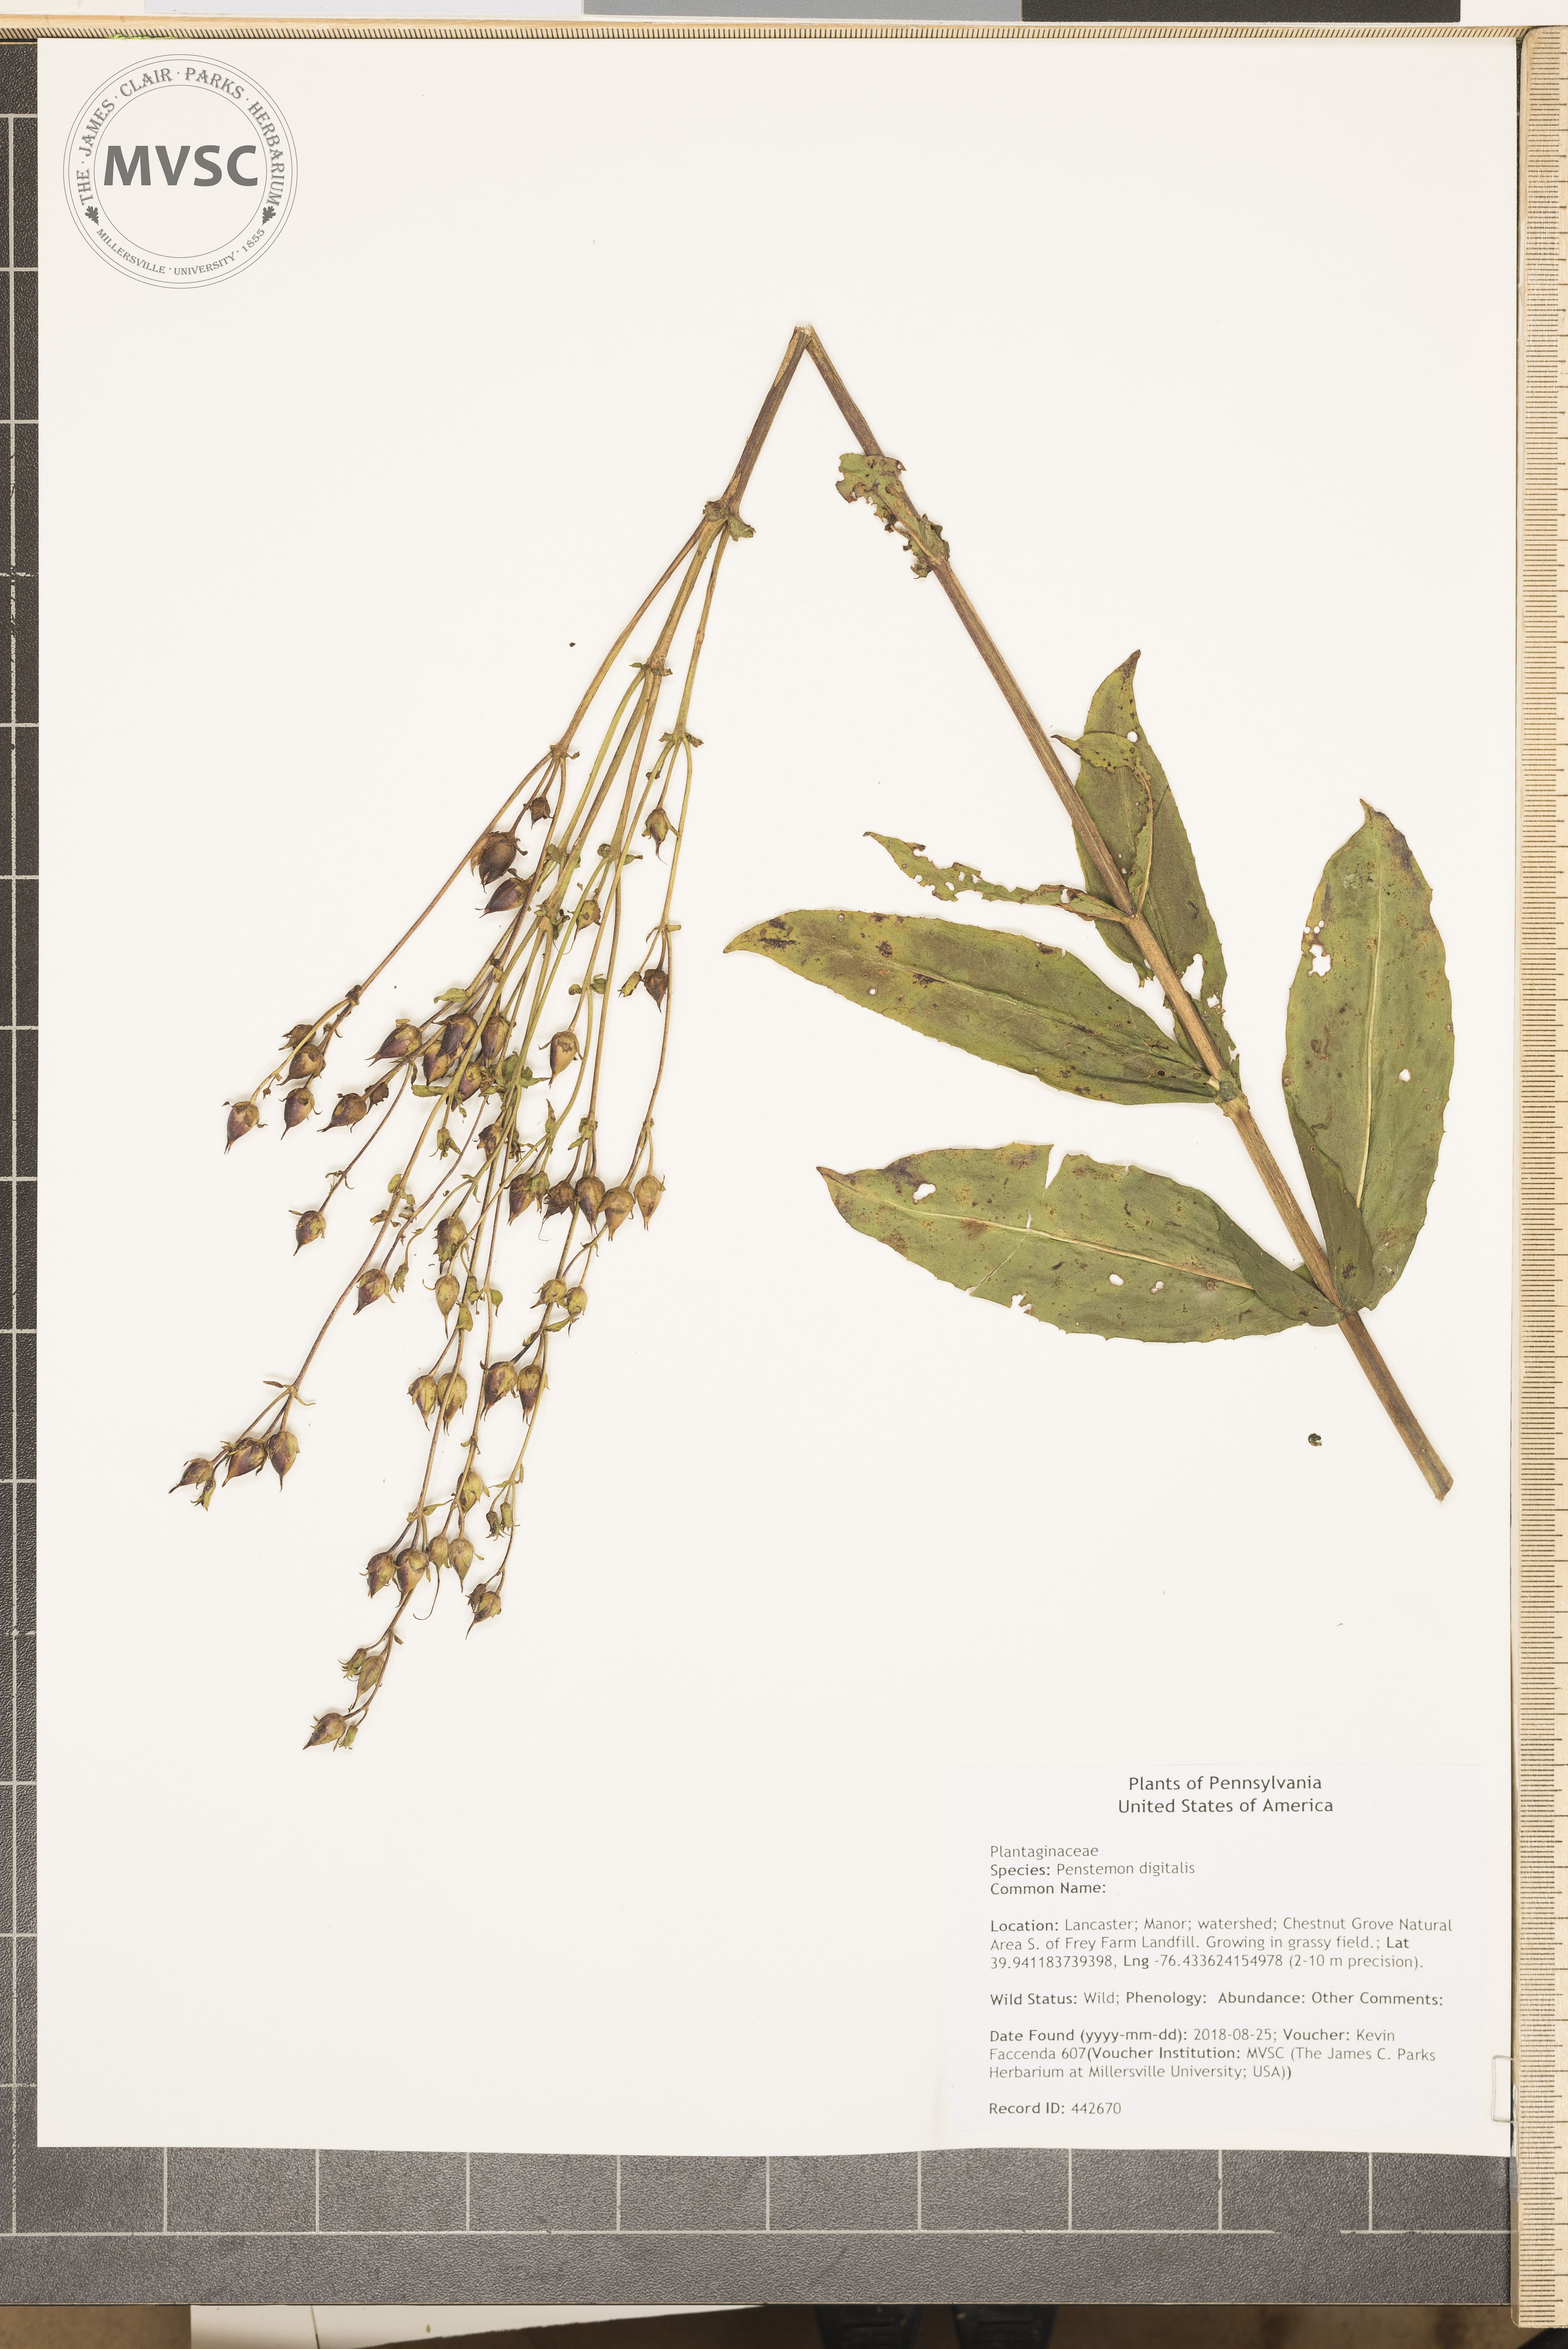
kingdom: Plantae
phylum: Tracheophyta
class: Magnoliopsida
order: Lamiales
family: Plantaginaceae
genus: Penstemon
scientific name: Penstemon digitalis
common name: Foxglove beardtongue
